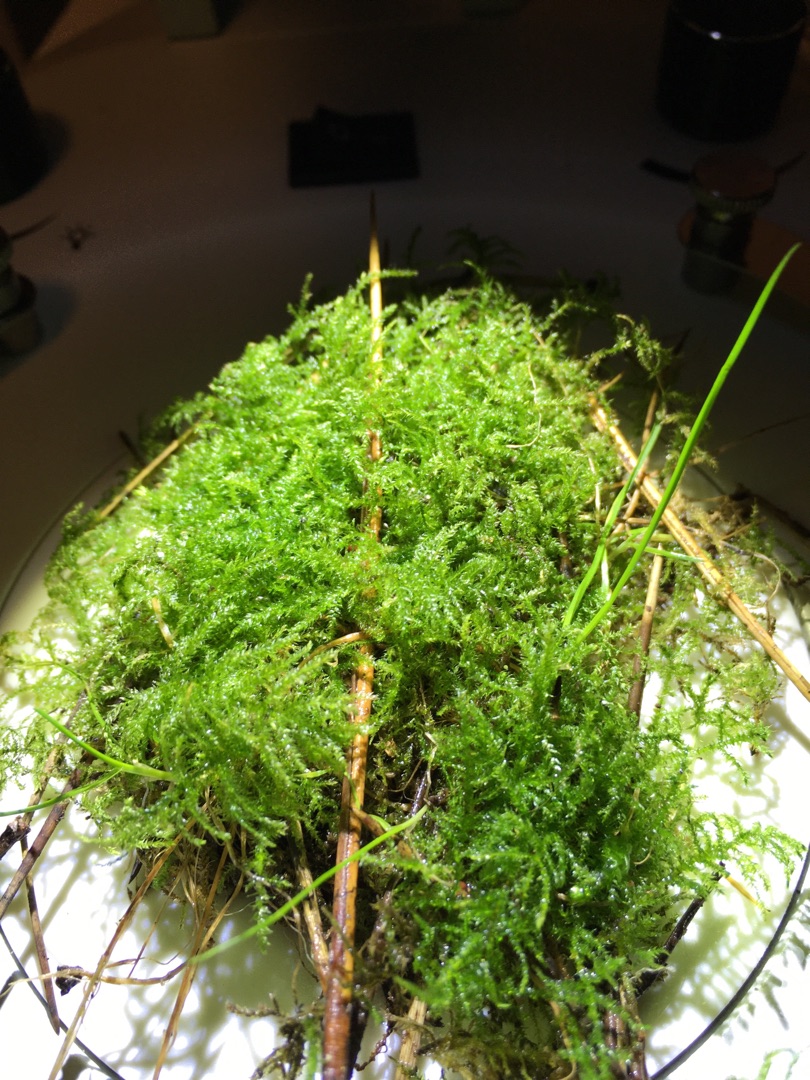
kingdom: Plantae
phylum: Bryophyta
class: Bryopsida
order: Hypnales
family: Brachytheciaceae
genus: Kindbergia
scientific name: Kindbergia praelonga
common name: Forskelligbladet vortetand
